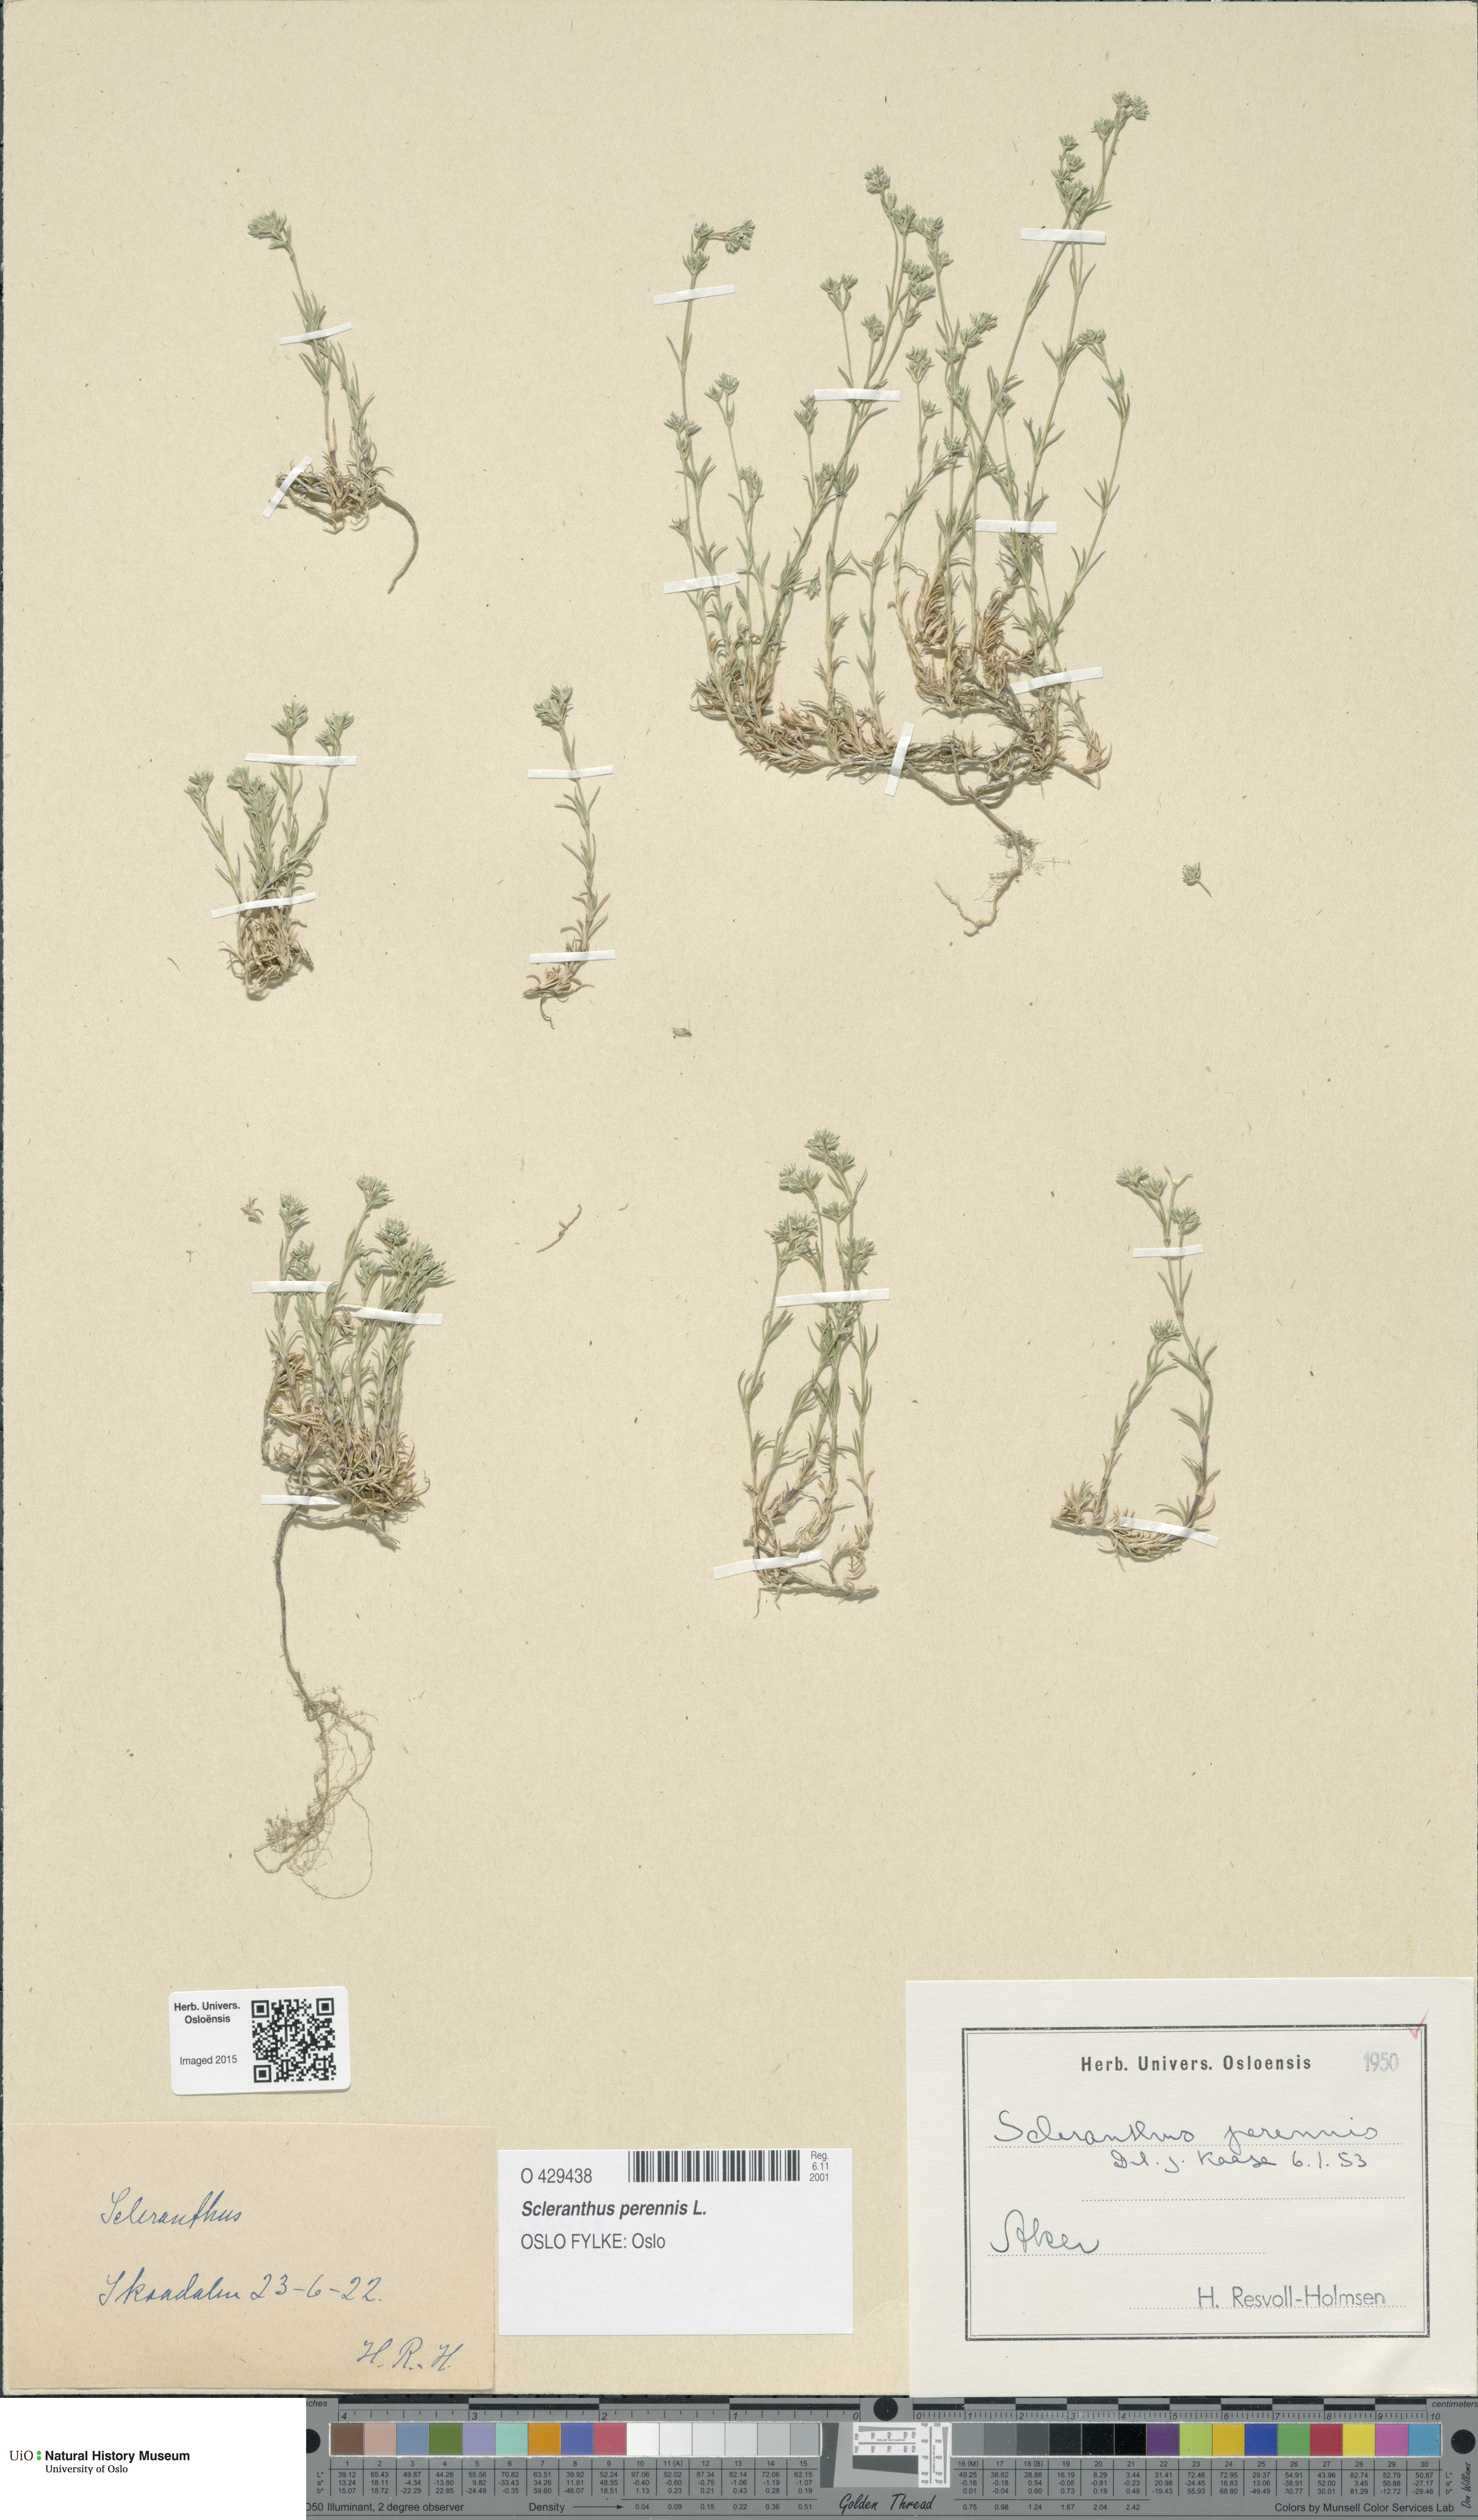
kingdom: Plantae
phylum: Tracheophyta
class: Magnoliopsida
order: Caryophyllales
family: Caryophyllaceae
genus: Scleranthus
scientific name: Scleranthus perennis
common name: Perennial knawel
